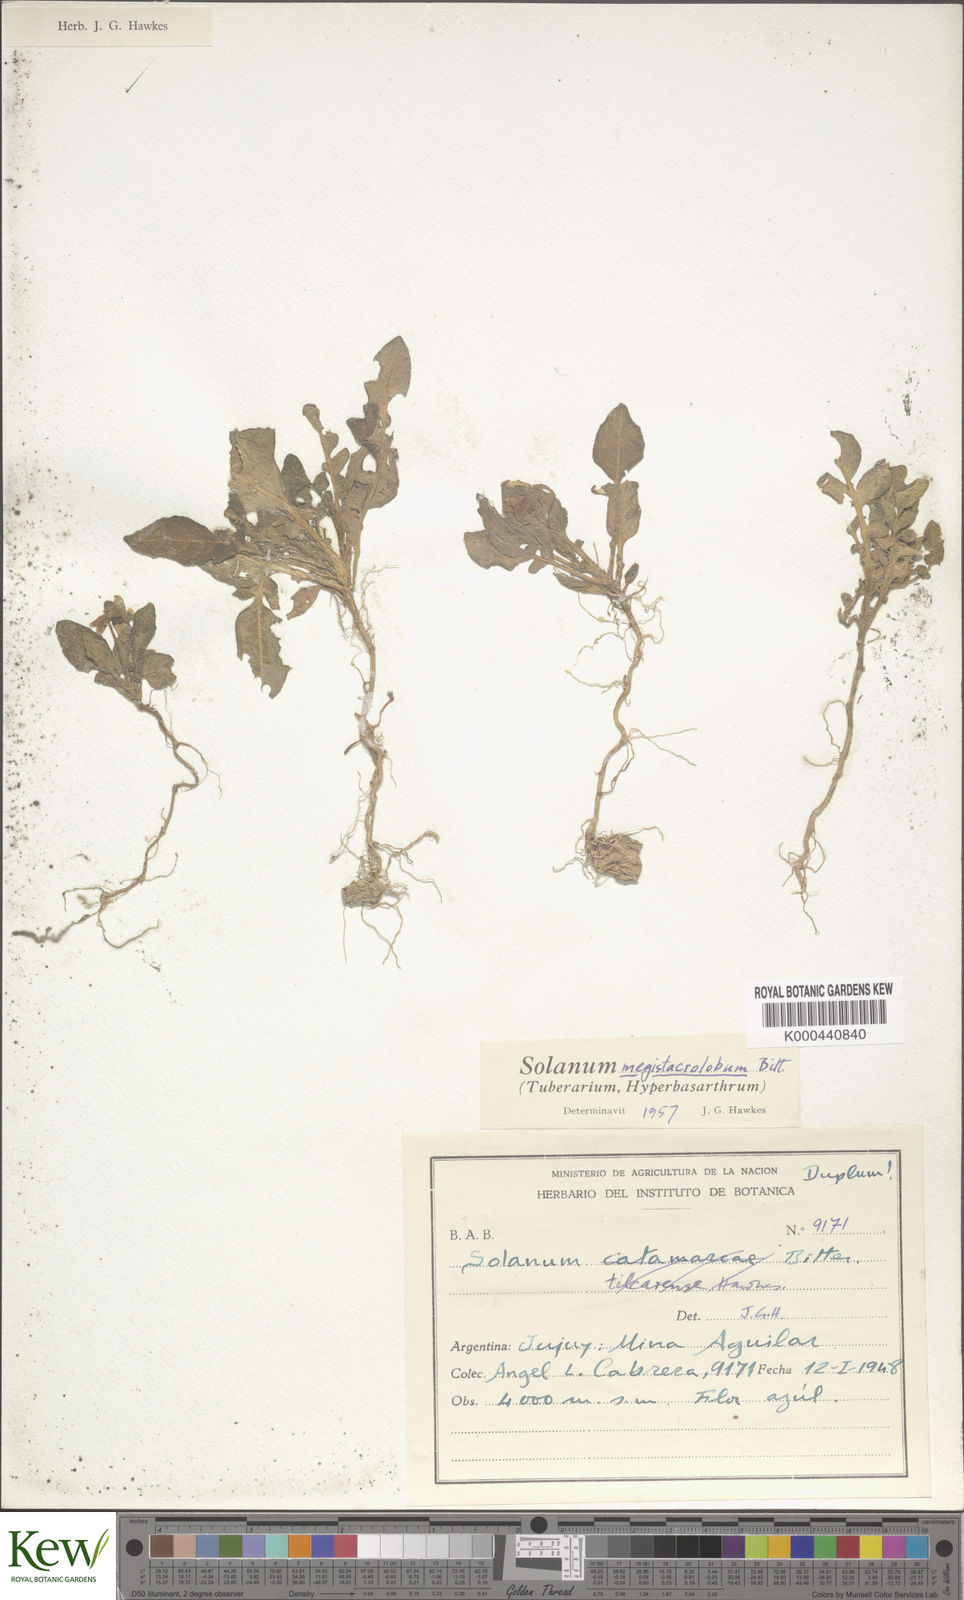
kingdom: Plantae
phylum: Tracheophyta
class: Magnoliopsida
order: Solanales
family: Solanaceae
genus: Solanum
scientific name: Solanum boliviense
